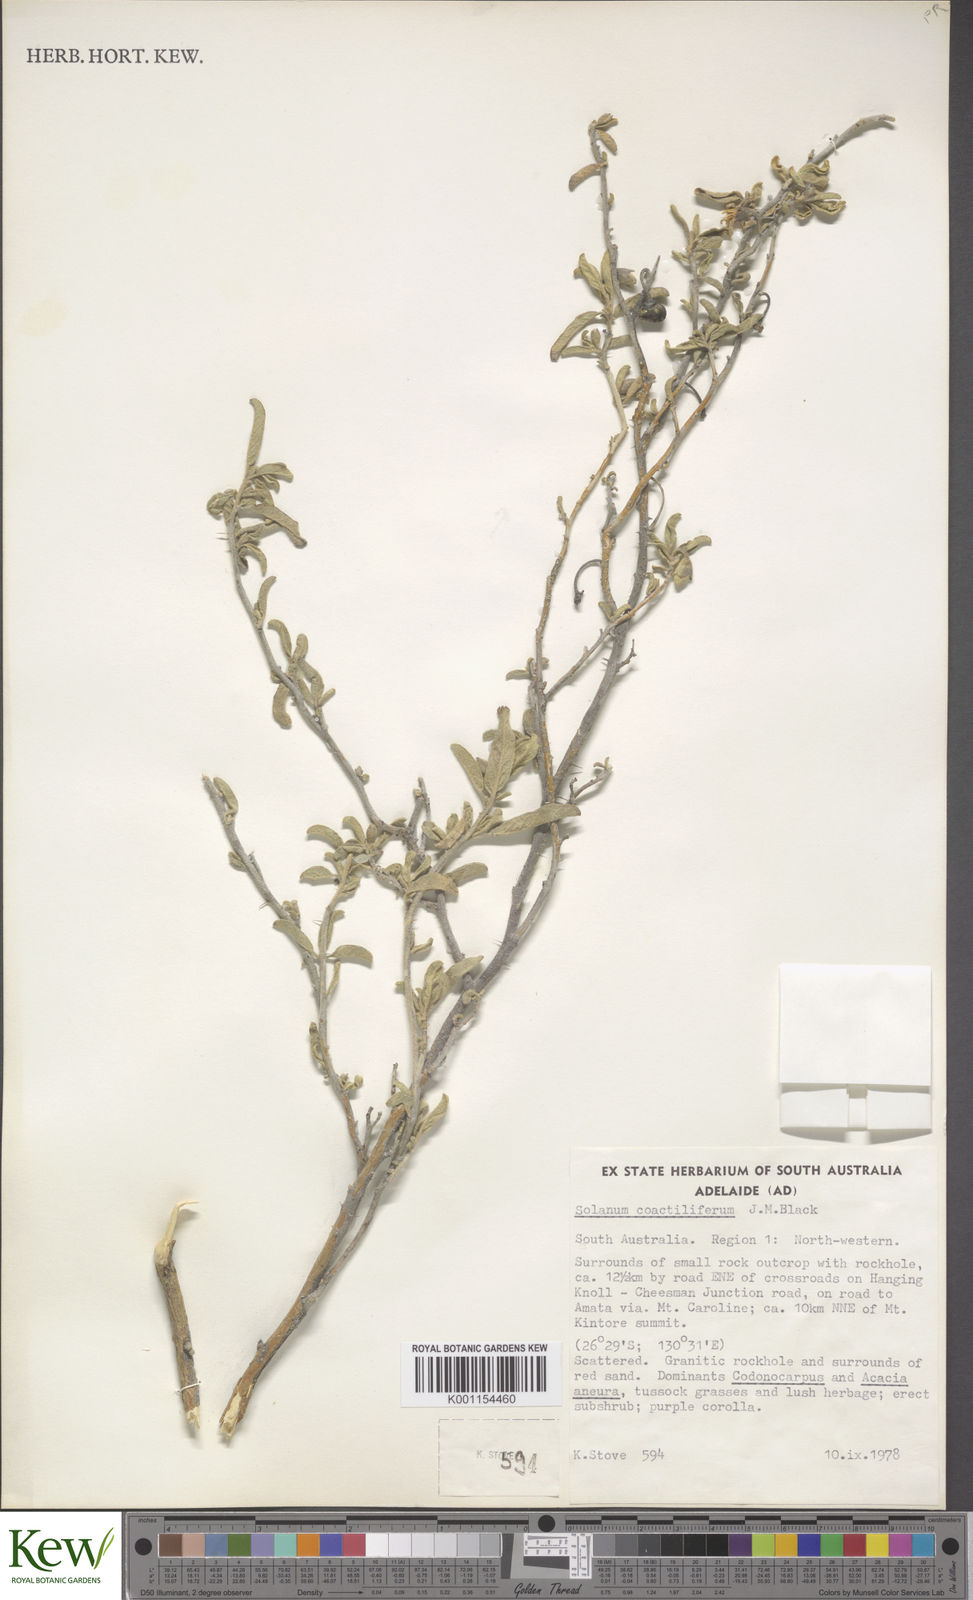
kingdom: Plantae
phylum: Tracheophyta
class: Magnoliopsida
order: Solanales
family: Solanaceae
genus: Solanum
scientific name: Solanum coactiliferum
